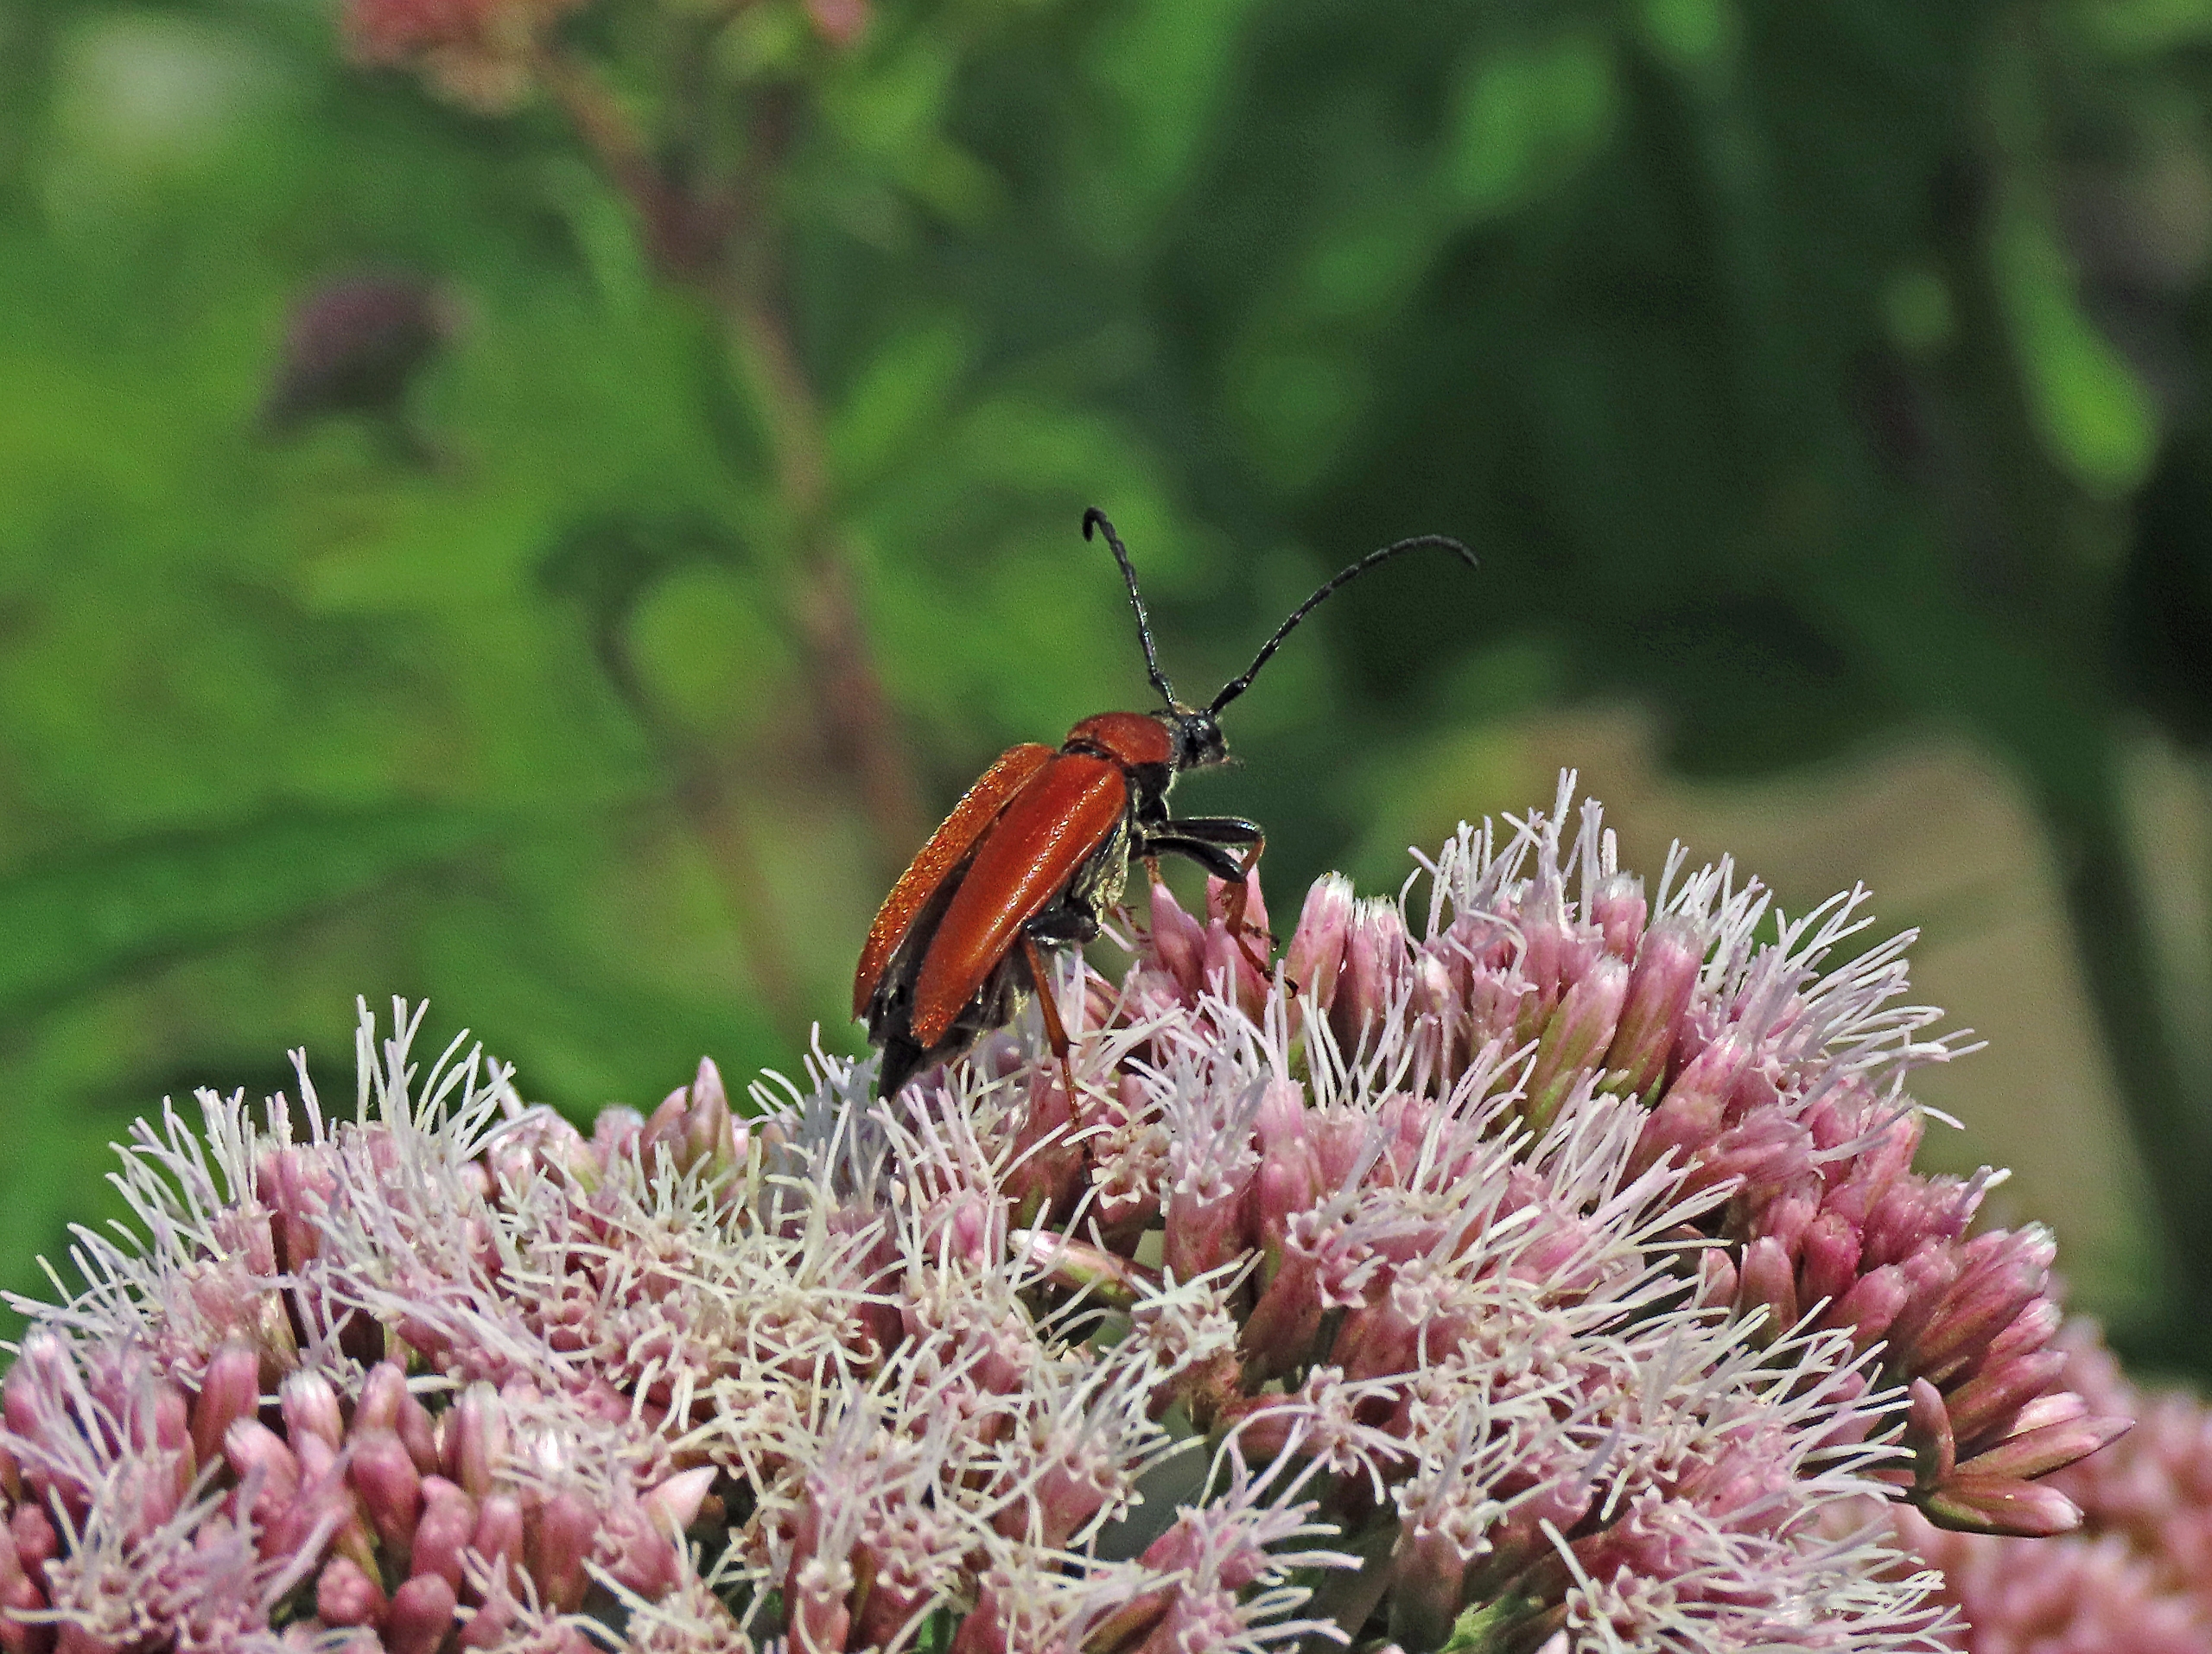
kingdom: Animalia
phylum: Arthropoda
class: Insecta
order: Coleoptera
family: Cerambycidae
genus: Stictoleptura
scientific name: Stictoleptura rubra
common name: Rød blomsterbuk
